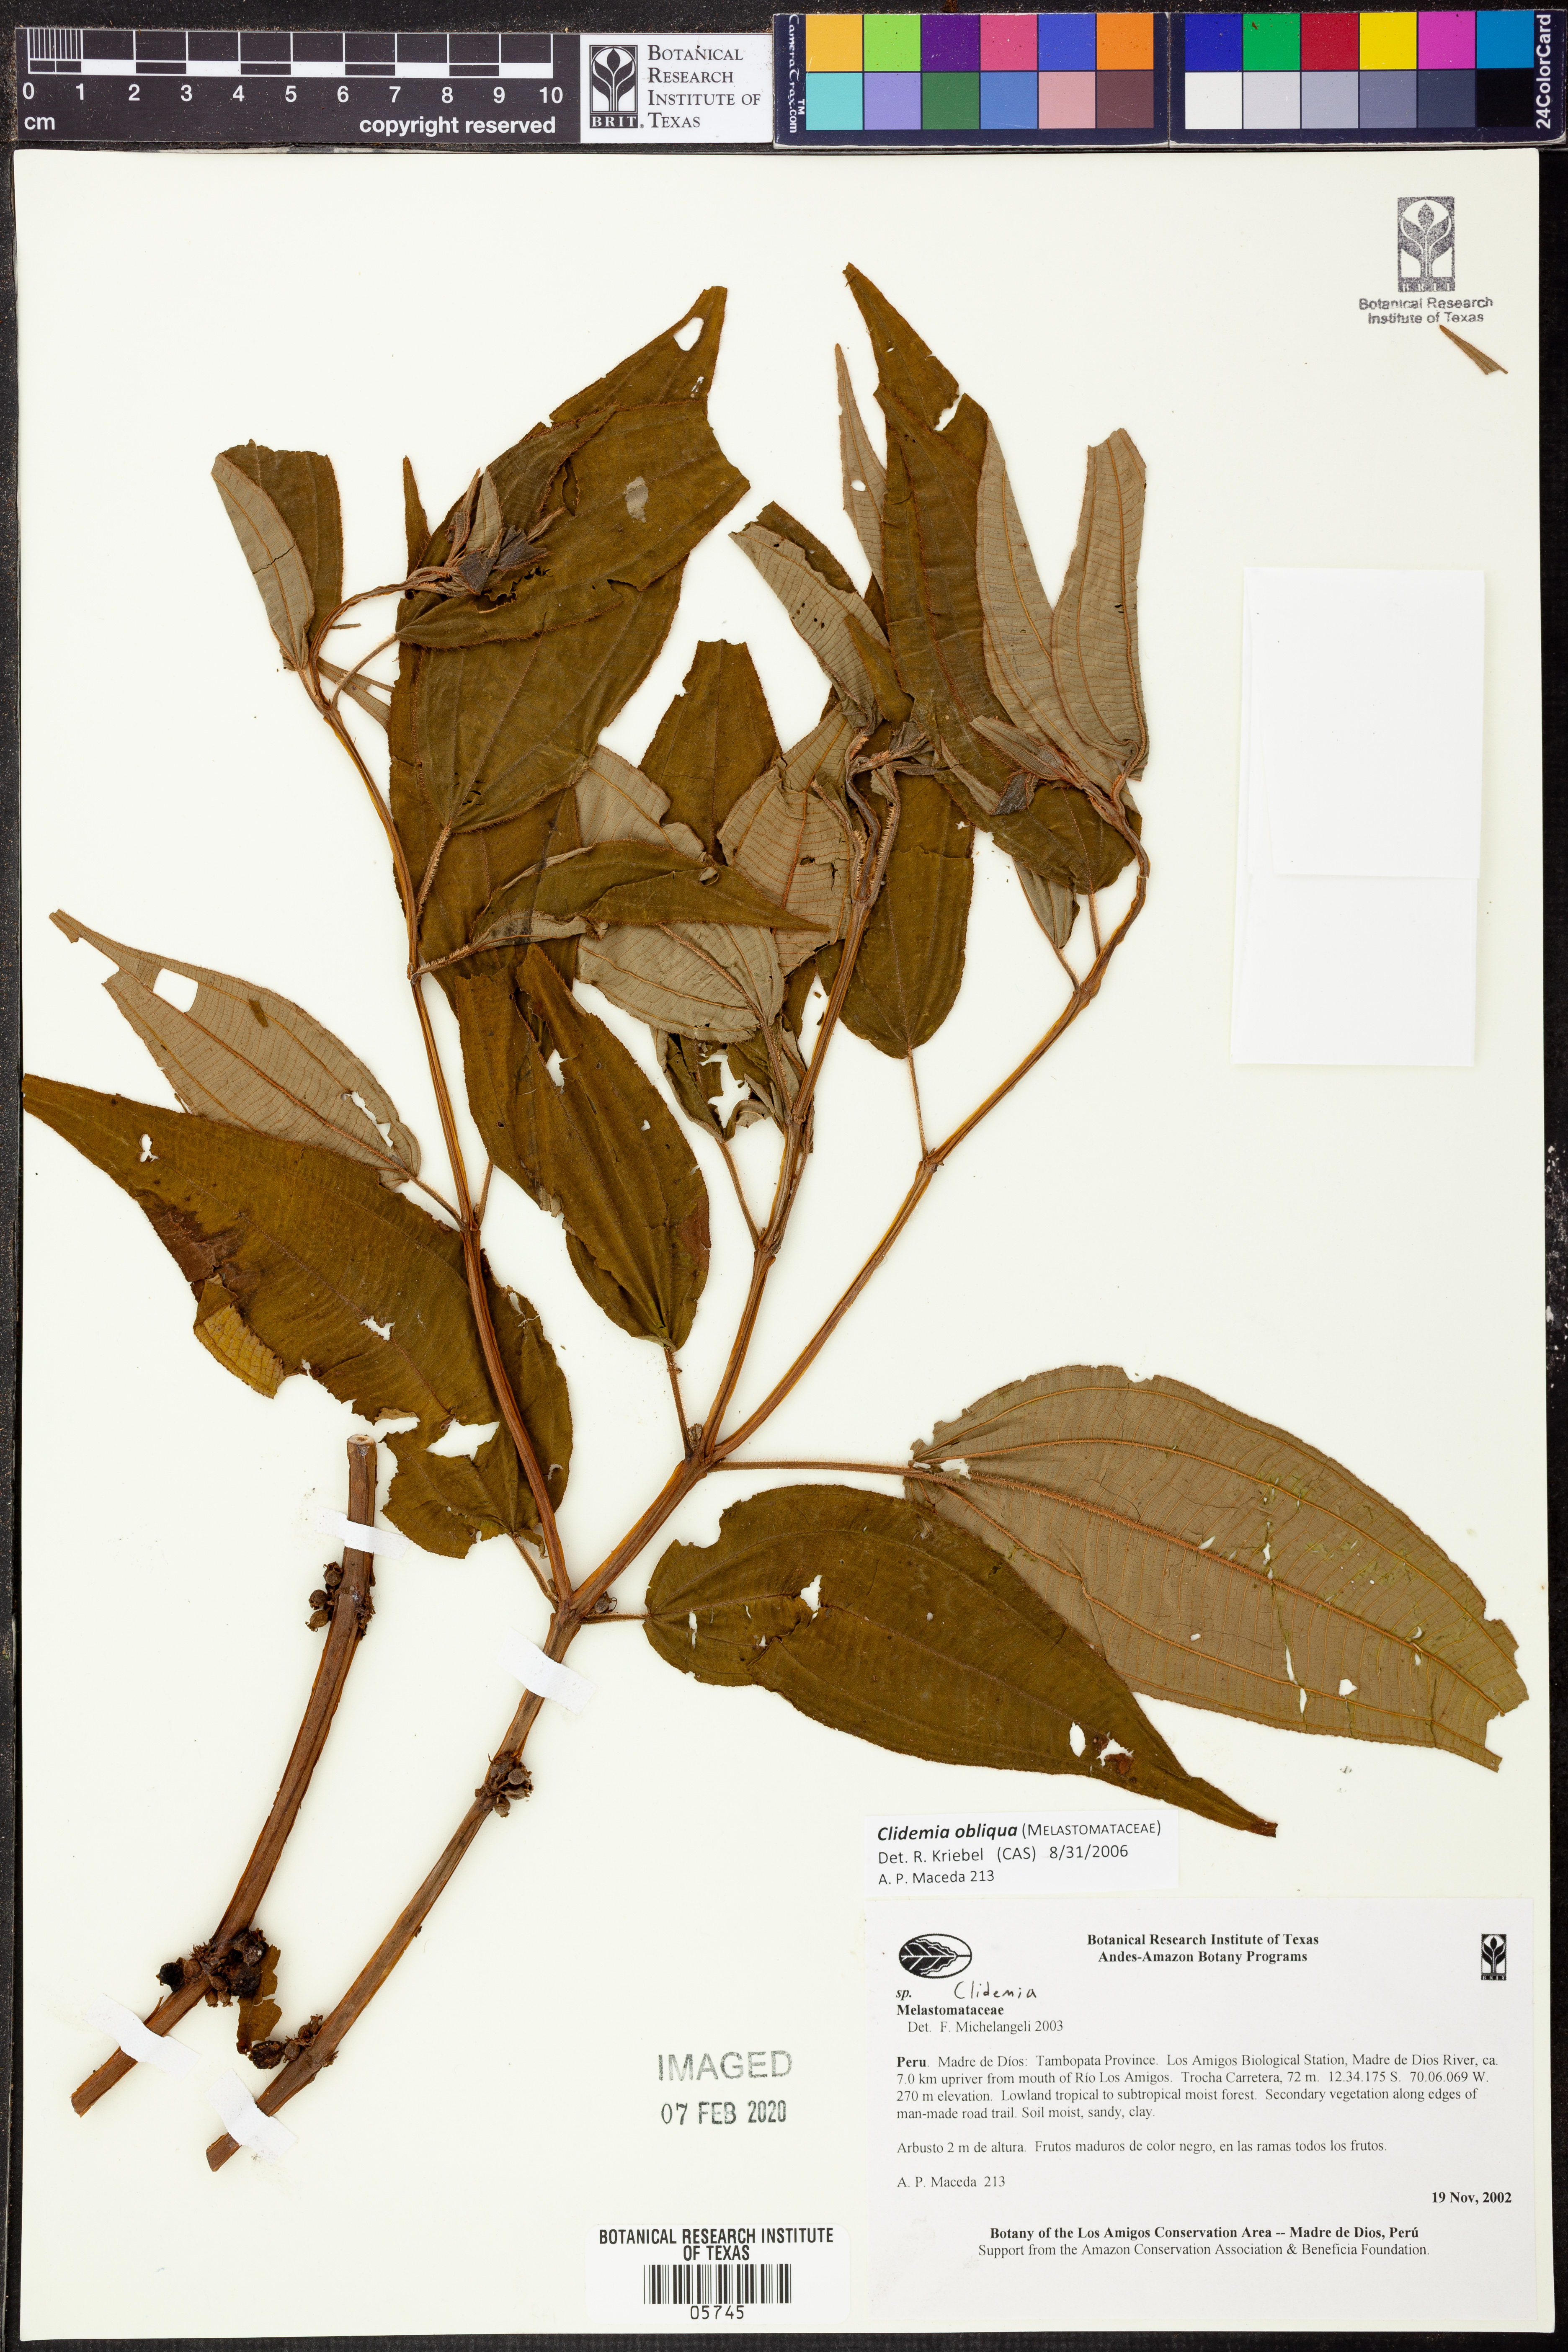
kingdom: Plantae
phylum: Tracheophyta
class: Magnoliopsida
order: Myrtales
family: Melastomataceae
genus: Miconia
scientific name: Miconia alaticaulis
